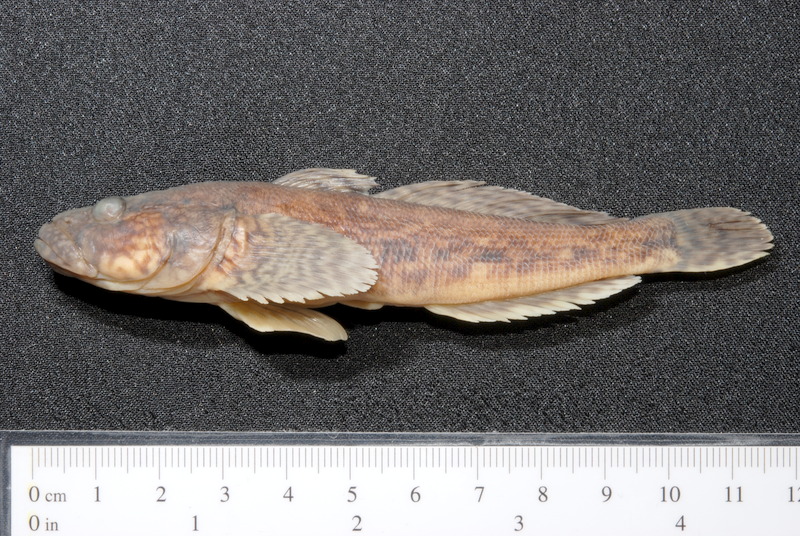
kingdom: Animalia
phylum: Chordata
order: Perciformes
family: Gobiidae
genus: Ponticola
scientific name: Ponticola kessleri
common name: Bighead goby
